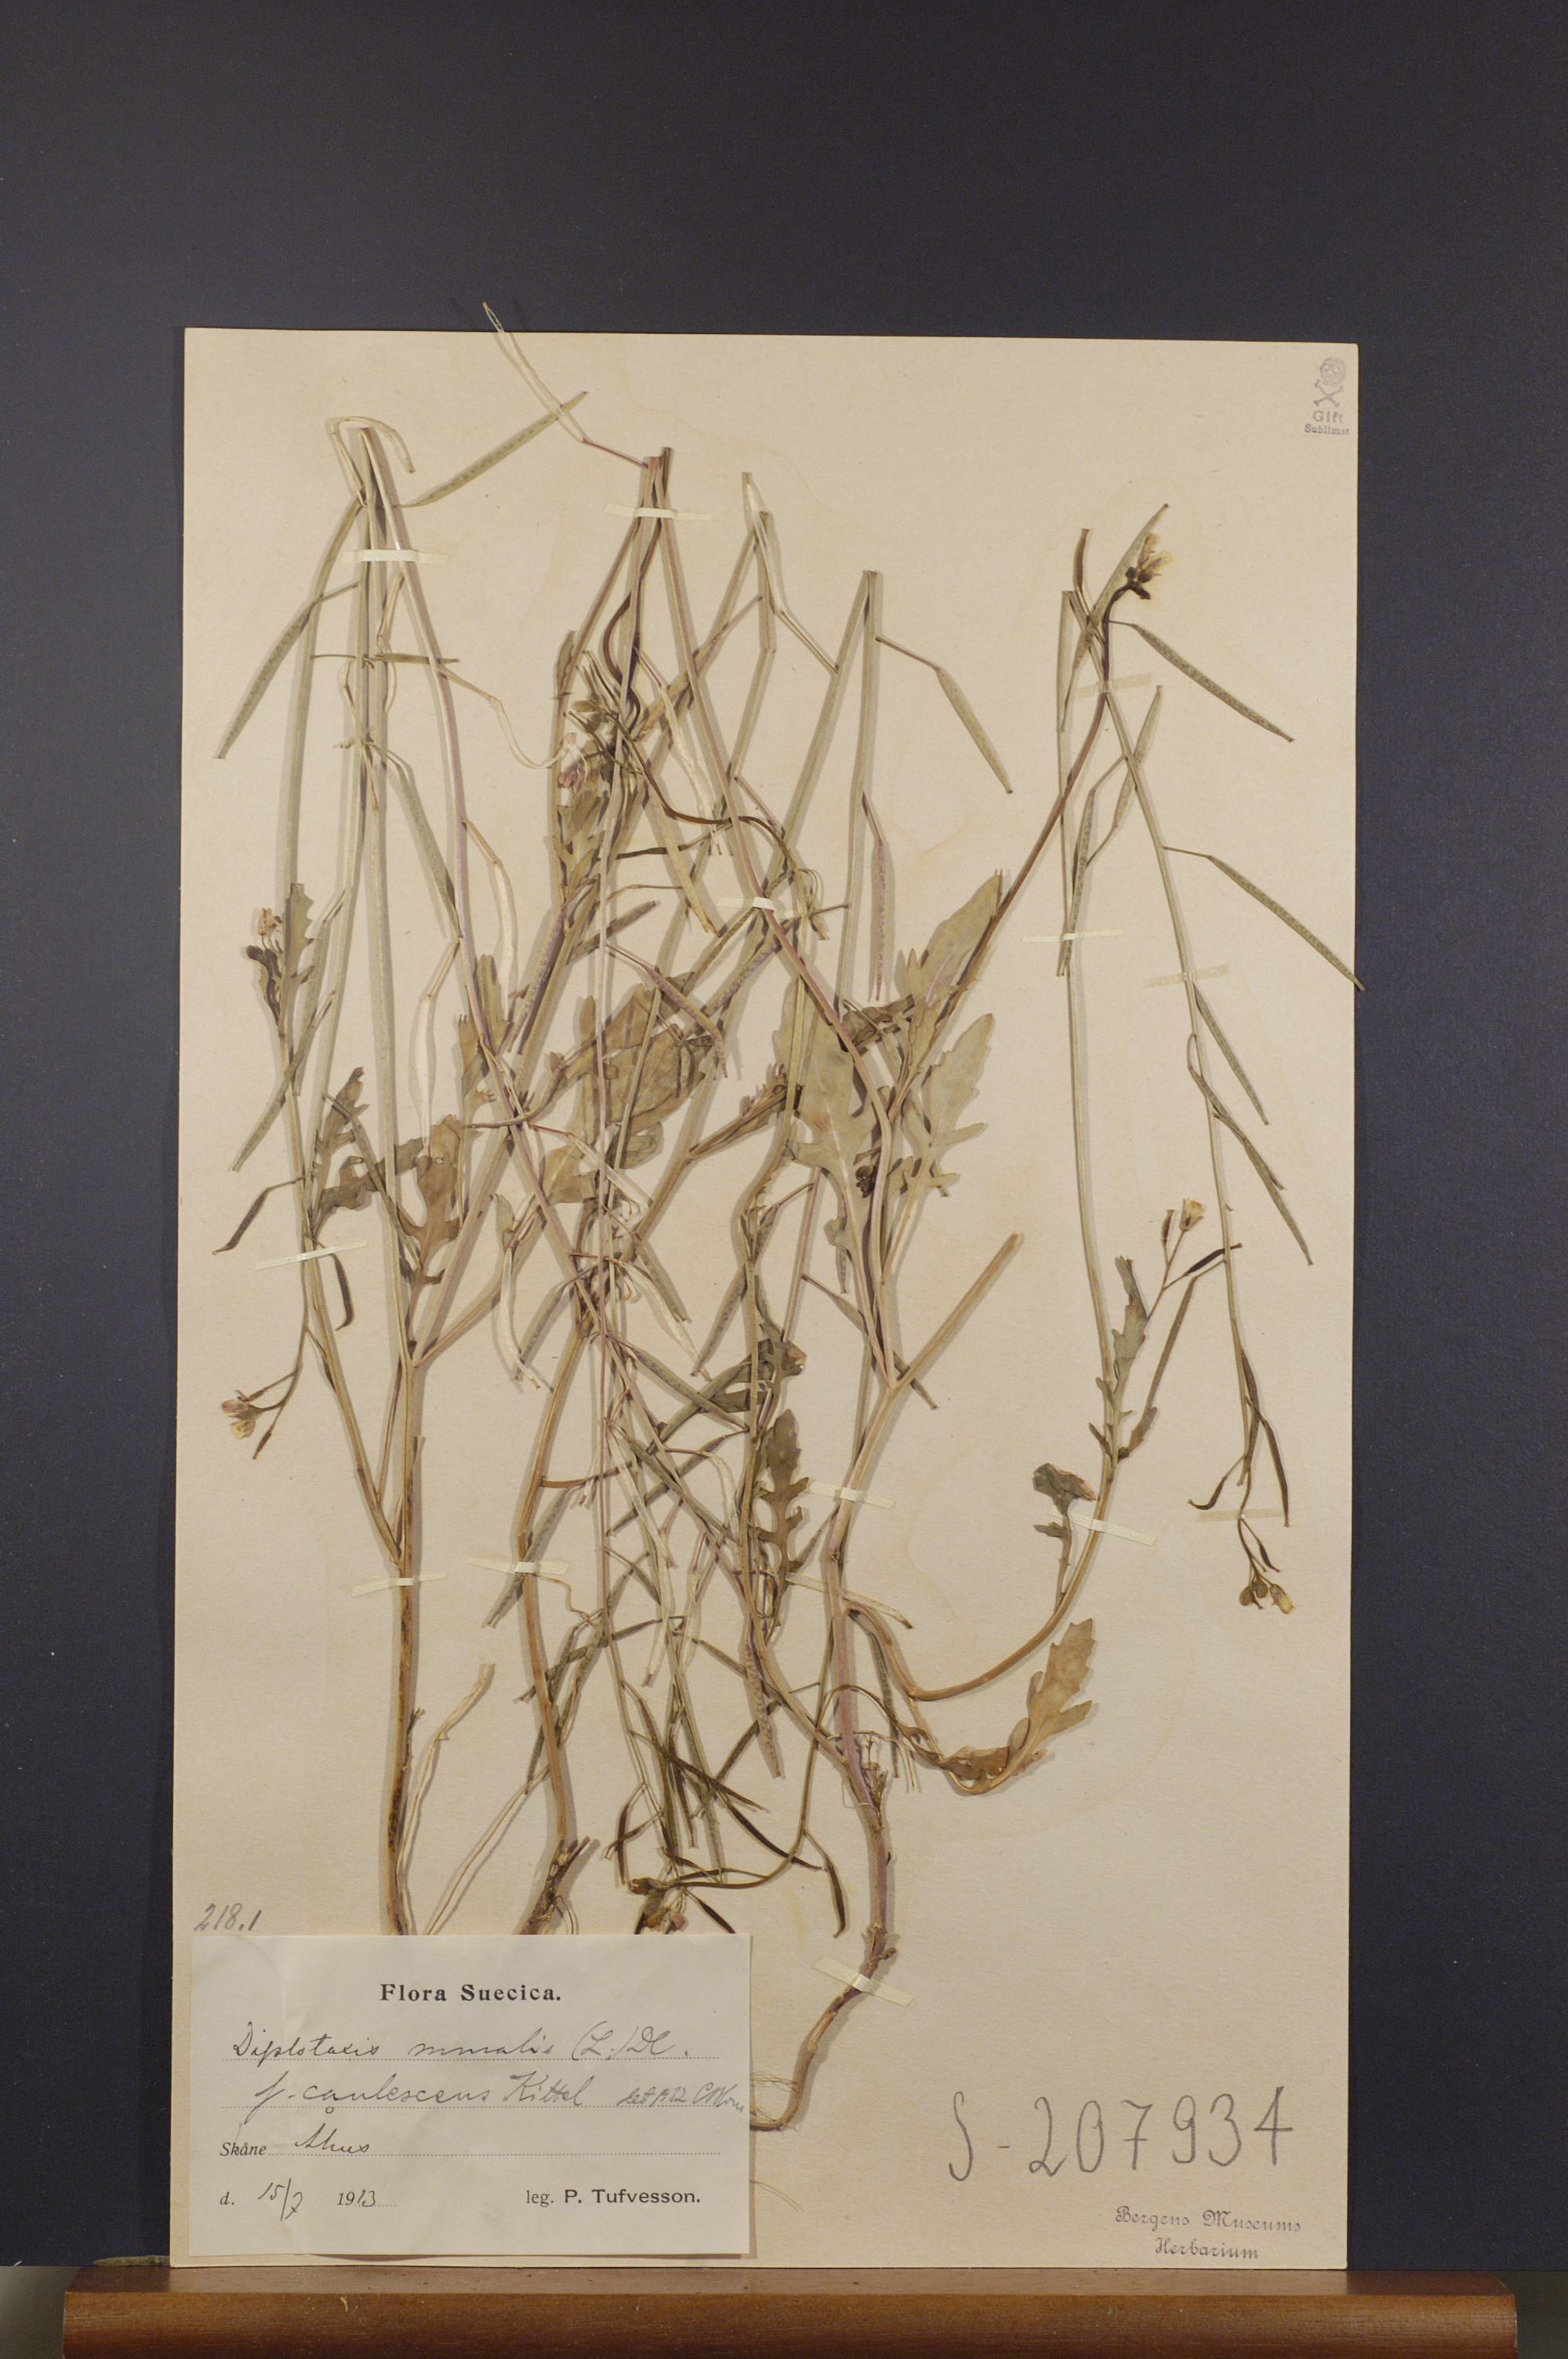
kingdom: Plantae
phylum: Tracheophyta
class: Magnoliopsida
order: Brassicales
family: Brassicaceae
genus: Diplotaxis
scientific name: Diplotaxis muralis
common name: Annual wall-rocket
